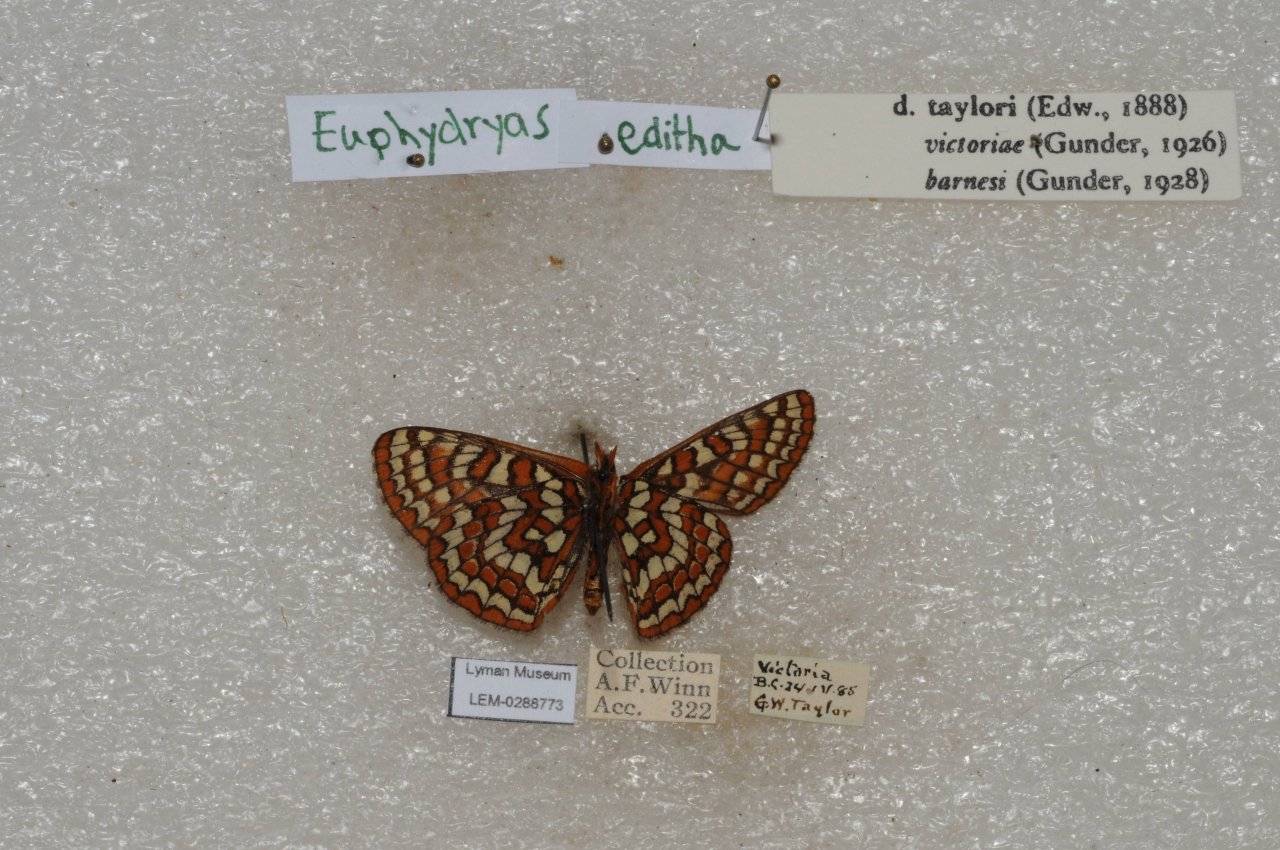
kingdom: Animalia
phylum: Arthropoda
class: Insecta
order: Lepidoptera
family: Lycaenidae
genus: Lycaena
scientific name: Lycaena editha
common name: Edith's Copper
